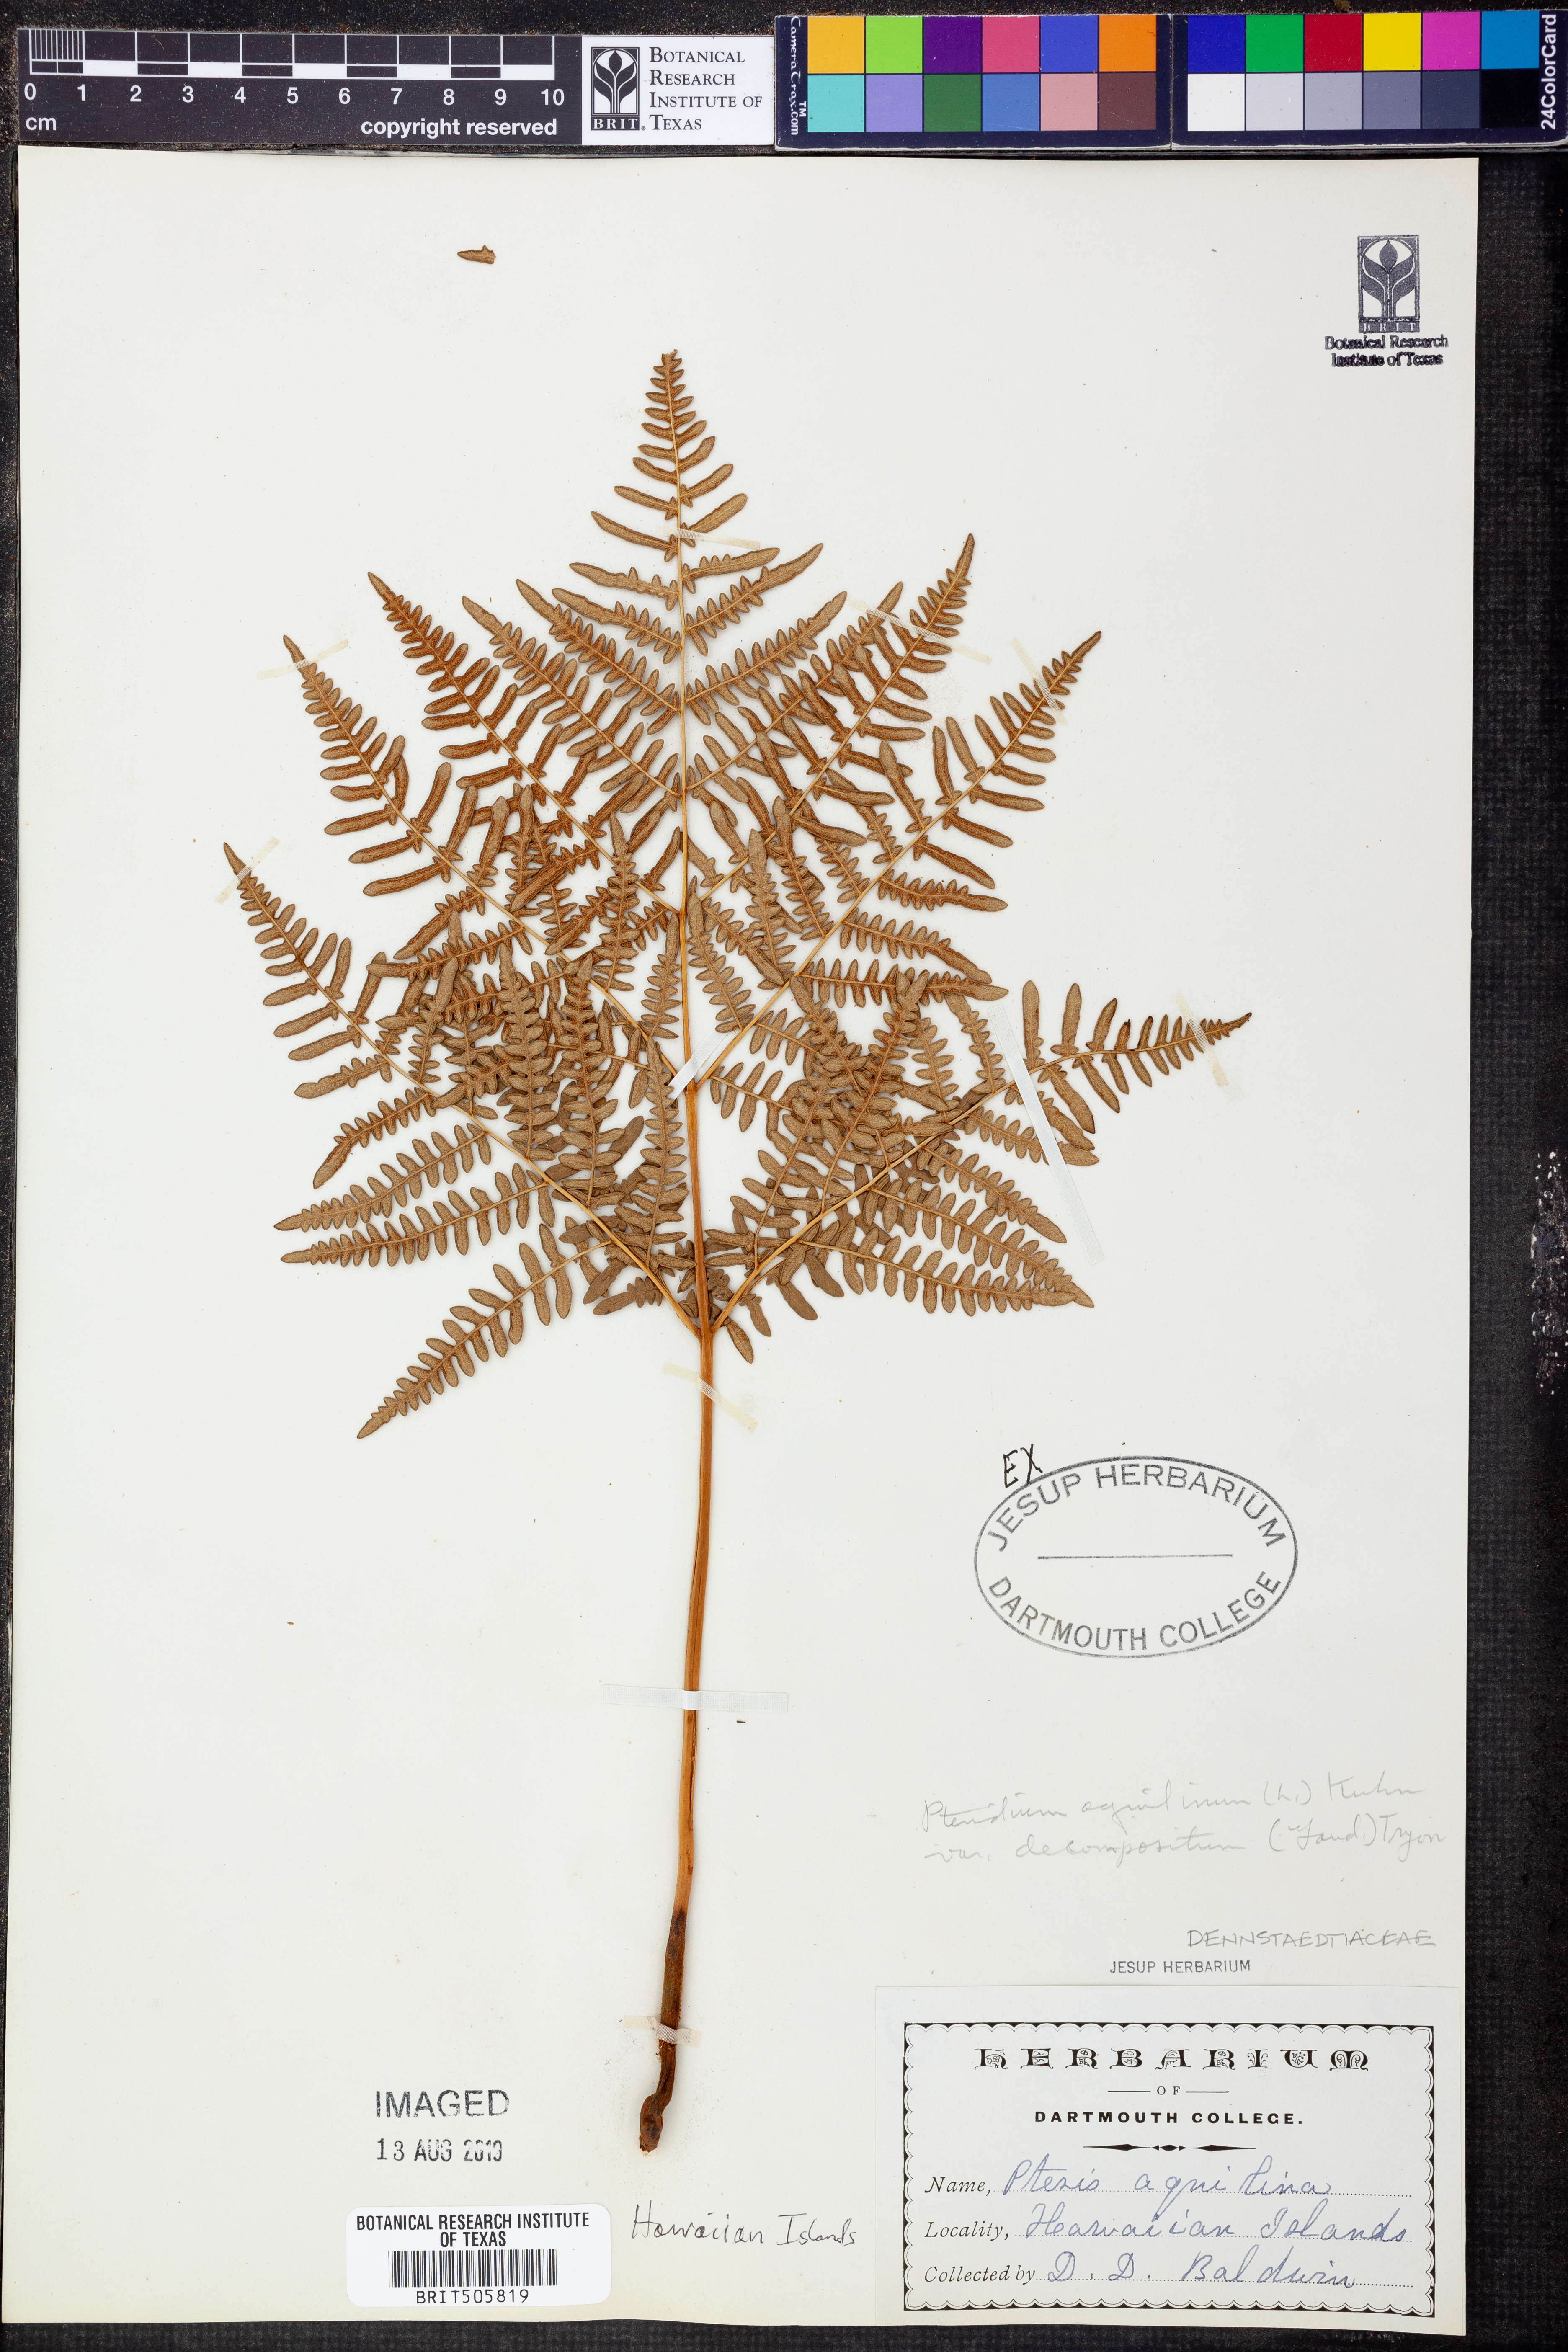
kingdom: Plantae
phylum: Tracheophyta
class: Polypodiopsida
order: Polypodiales
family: Dennstaedtiaceae
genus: Pteridium
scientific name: Pteridium aquilinum
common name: Bracken
